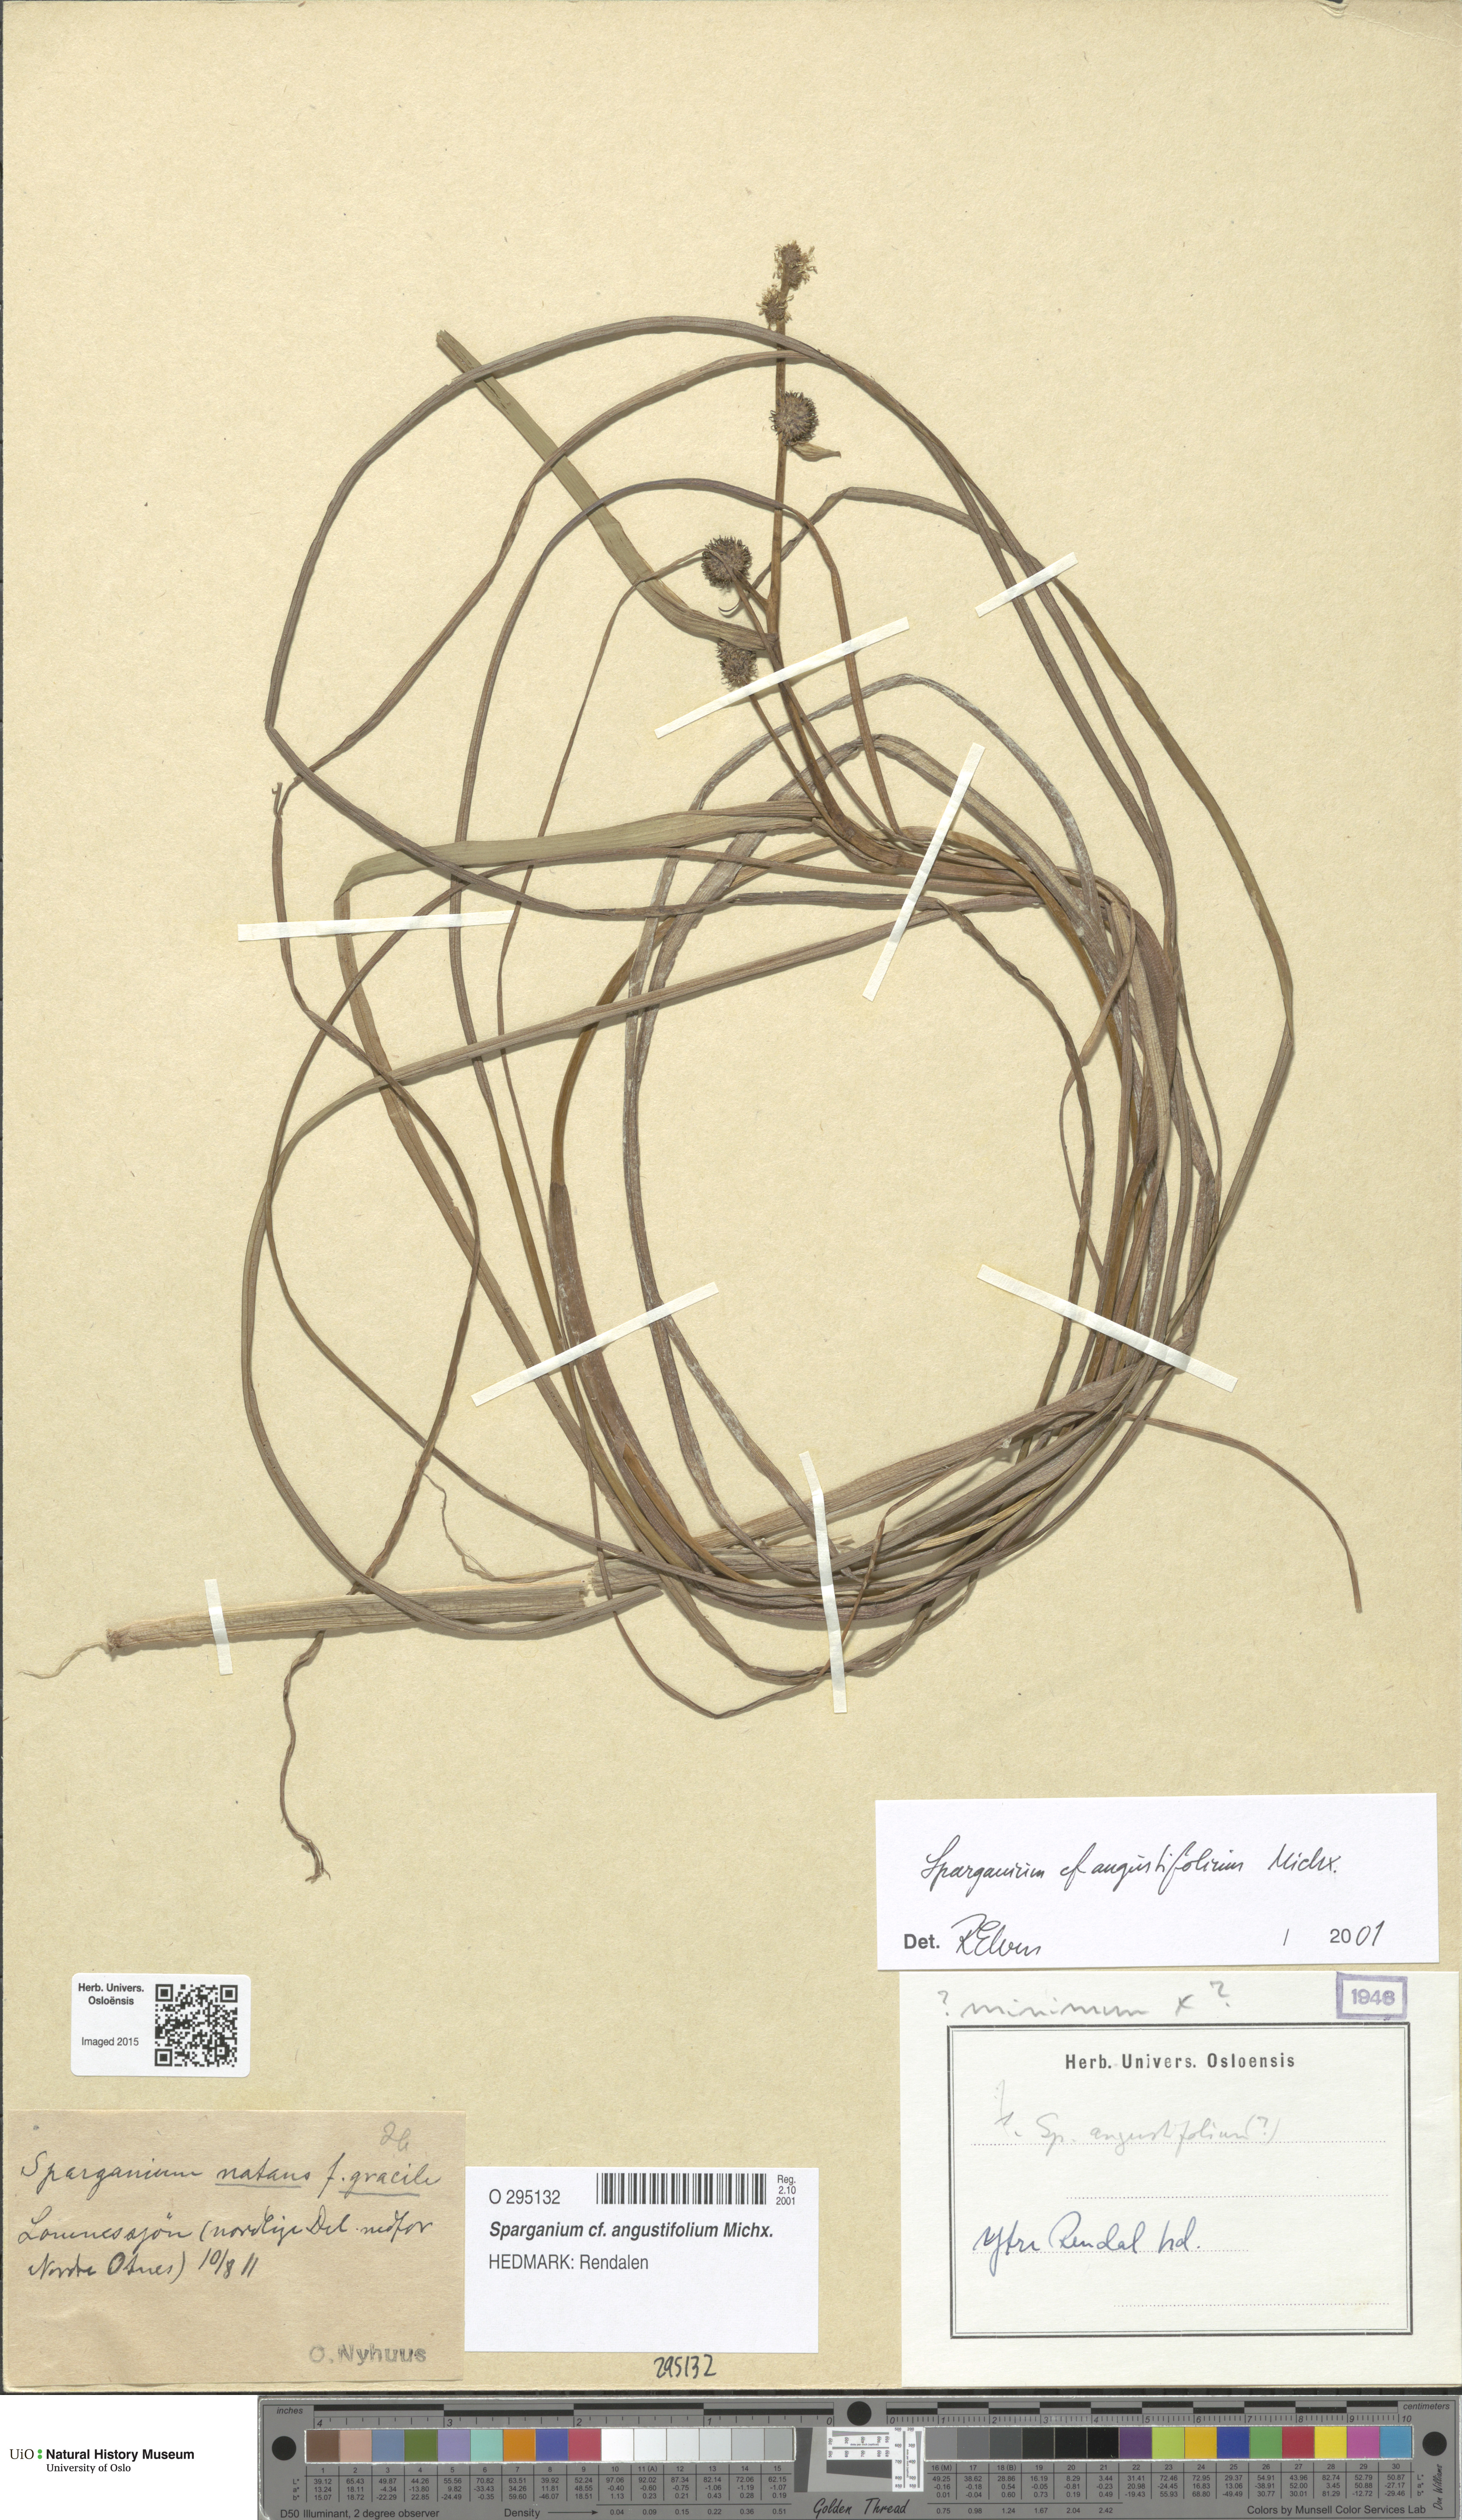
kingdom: Plantae
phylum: Tracheophyta
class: Liliopsida
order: Poales
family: Typhaceae
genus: Sparganium
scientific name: Sparganium angustifolium
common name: Floating bur-reed
